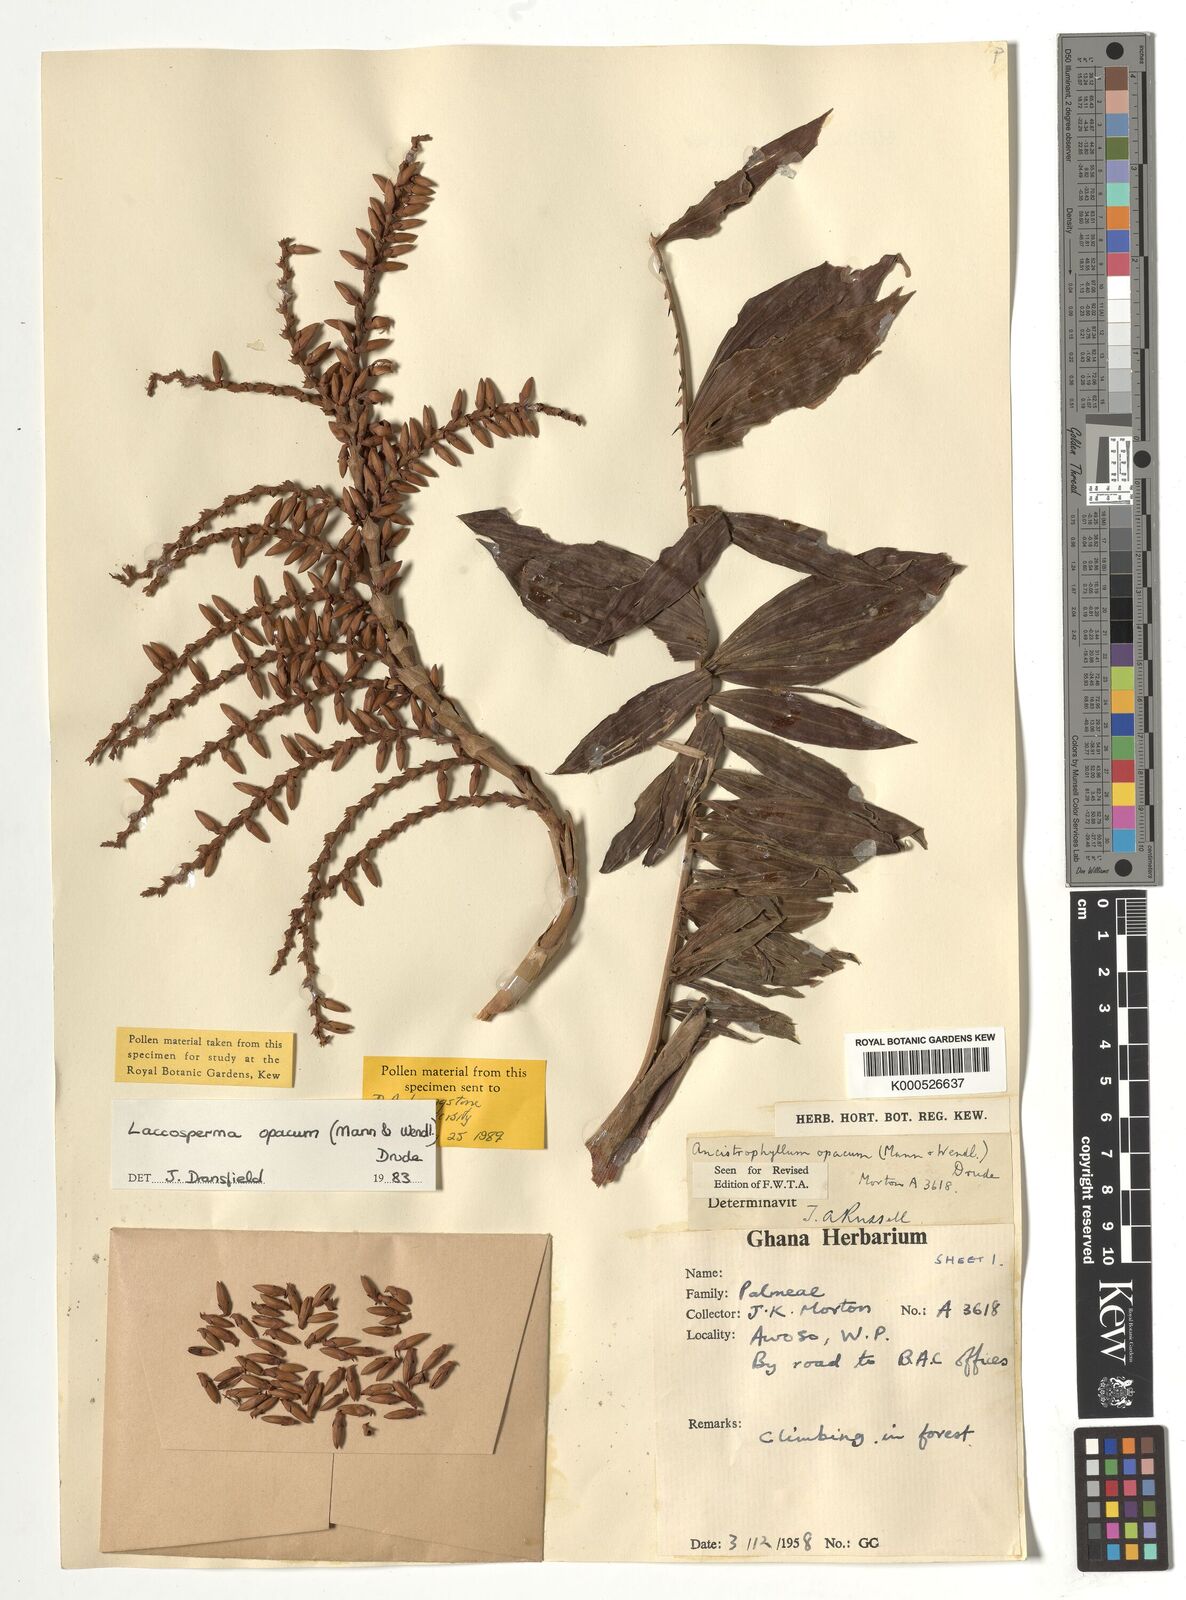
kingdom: Plantae
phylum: Tracheophyta
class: Liliopsida
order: Arecales
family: Arecaceae
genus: Laccosperma
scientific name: Laccosperma opacum
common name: Rattan
